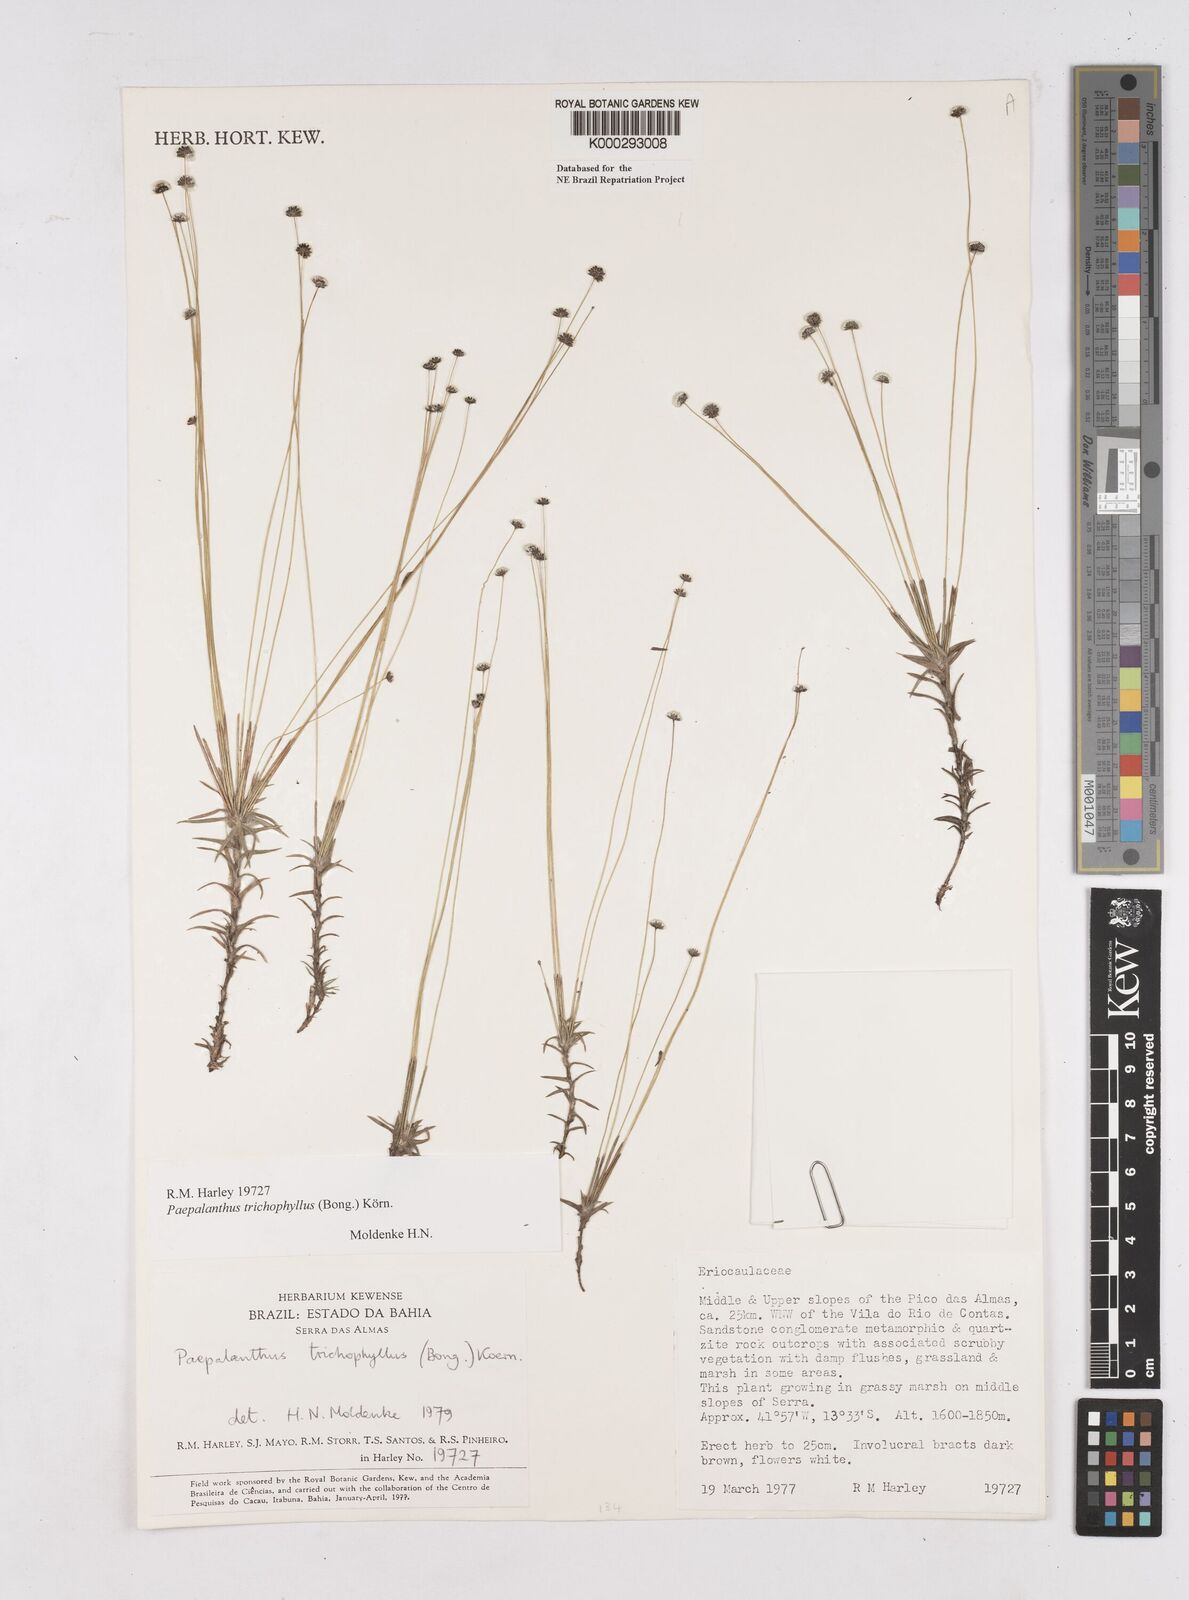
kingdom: Plantae
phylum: Tracheophyta
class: Liliopsida
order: Poales
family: Eriocaulaceae
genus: Paepalanthus
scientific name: Paepalanthus
